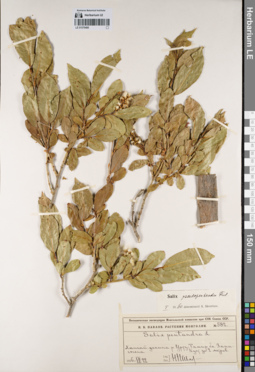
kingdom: Plantae
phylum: Tracheophyta
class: Magnoliopsida
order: Malpighiales
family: Salicaceae
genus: Salix
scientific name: Salix pseudopentandra
